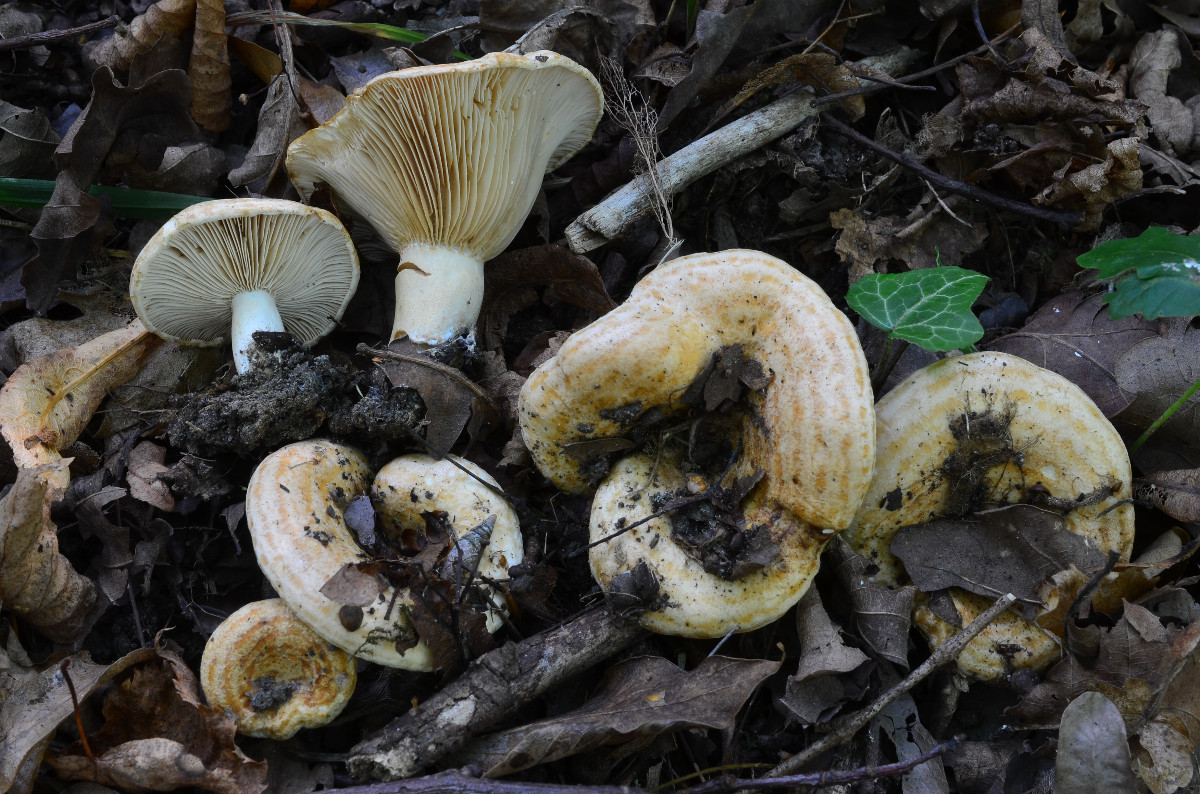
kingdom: Fungi
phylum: Basidiomycota
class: Agaricomycetes
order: Russulales
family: Russulaceae
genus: Lactarius
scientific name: Lactarius acerrimus
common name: brændende mælkehat
